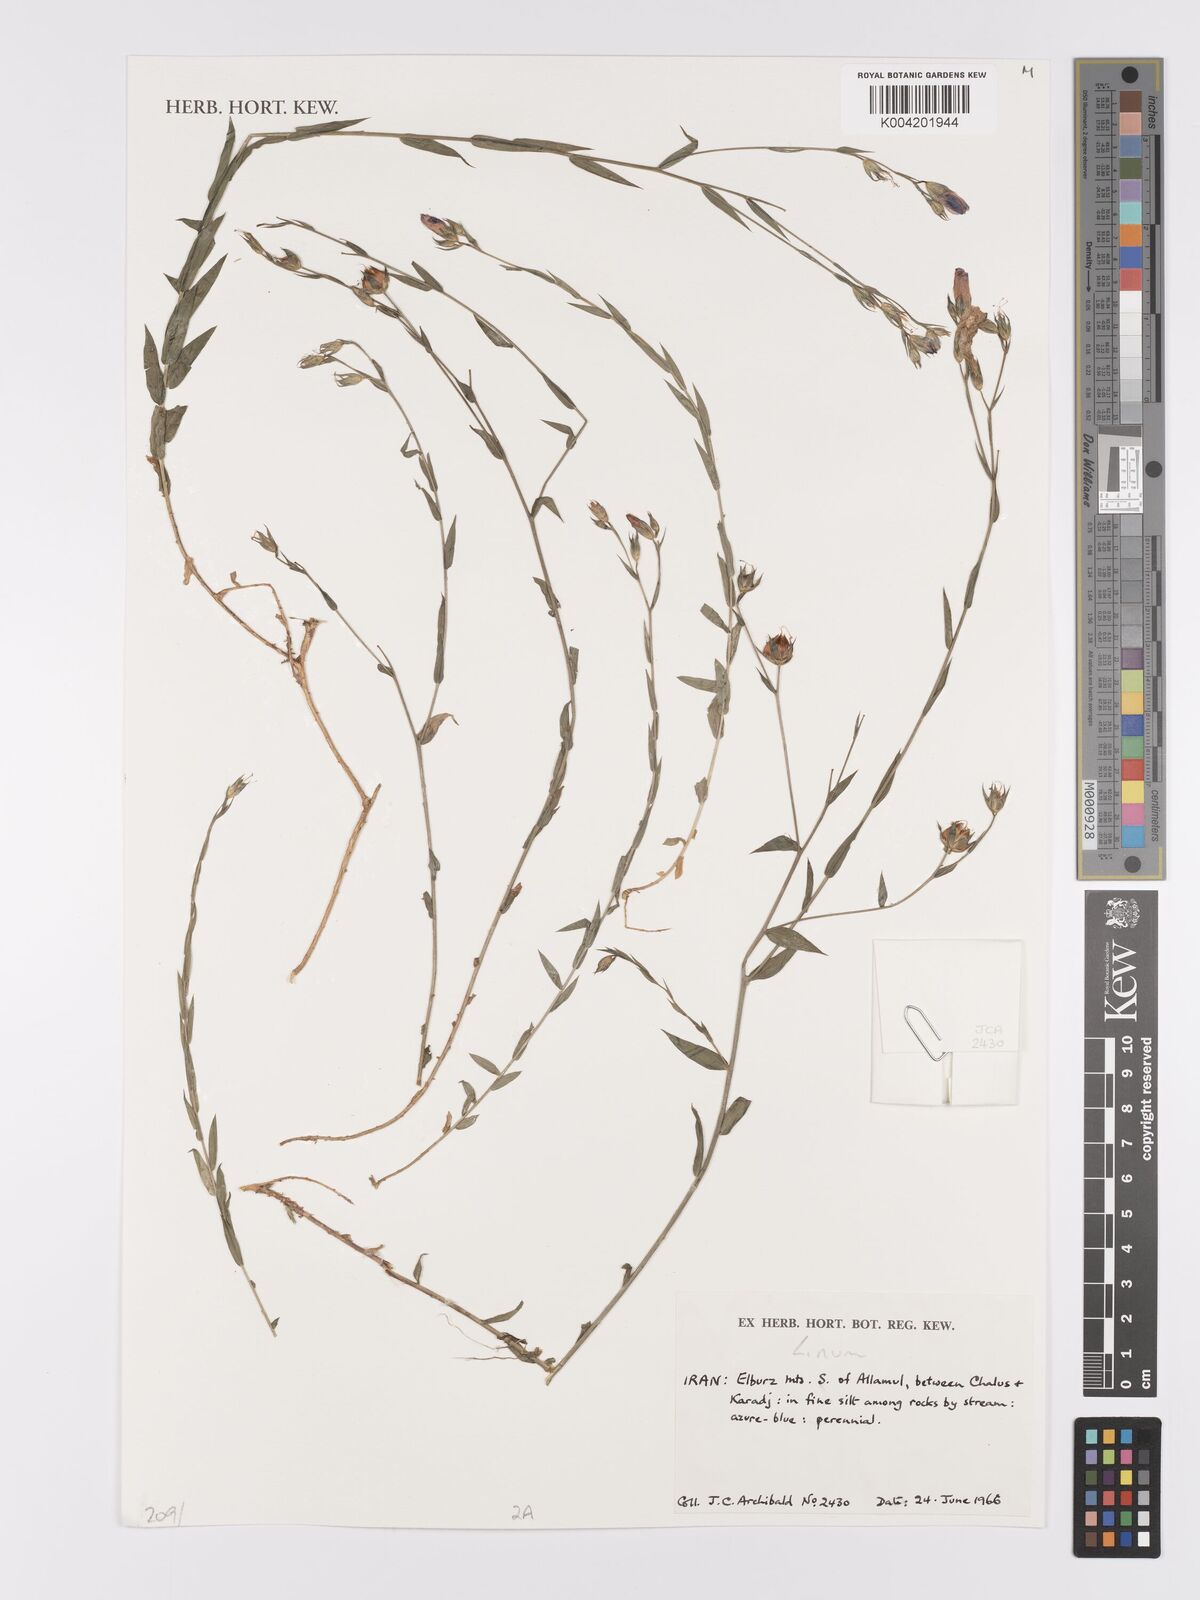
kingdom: Plantae
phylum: Tracheophyta
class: Magnoliopsida
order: Malpighiales
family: Linaceae
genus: Linum
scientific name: Linum
